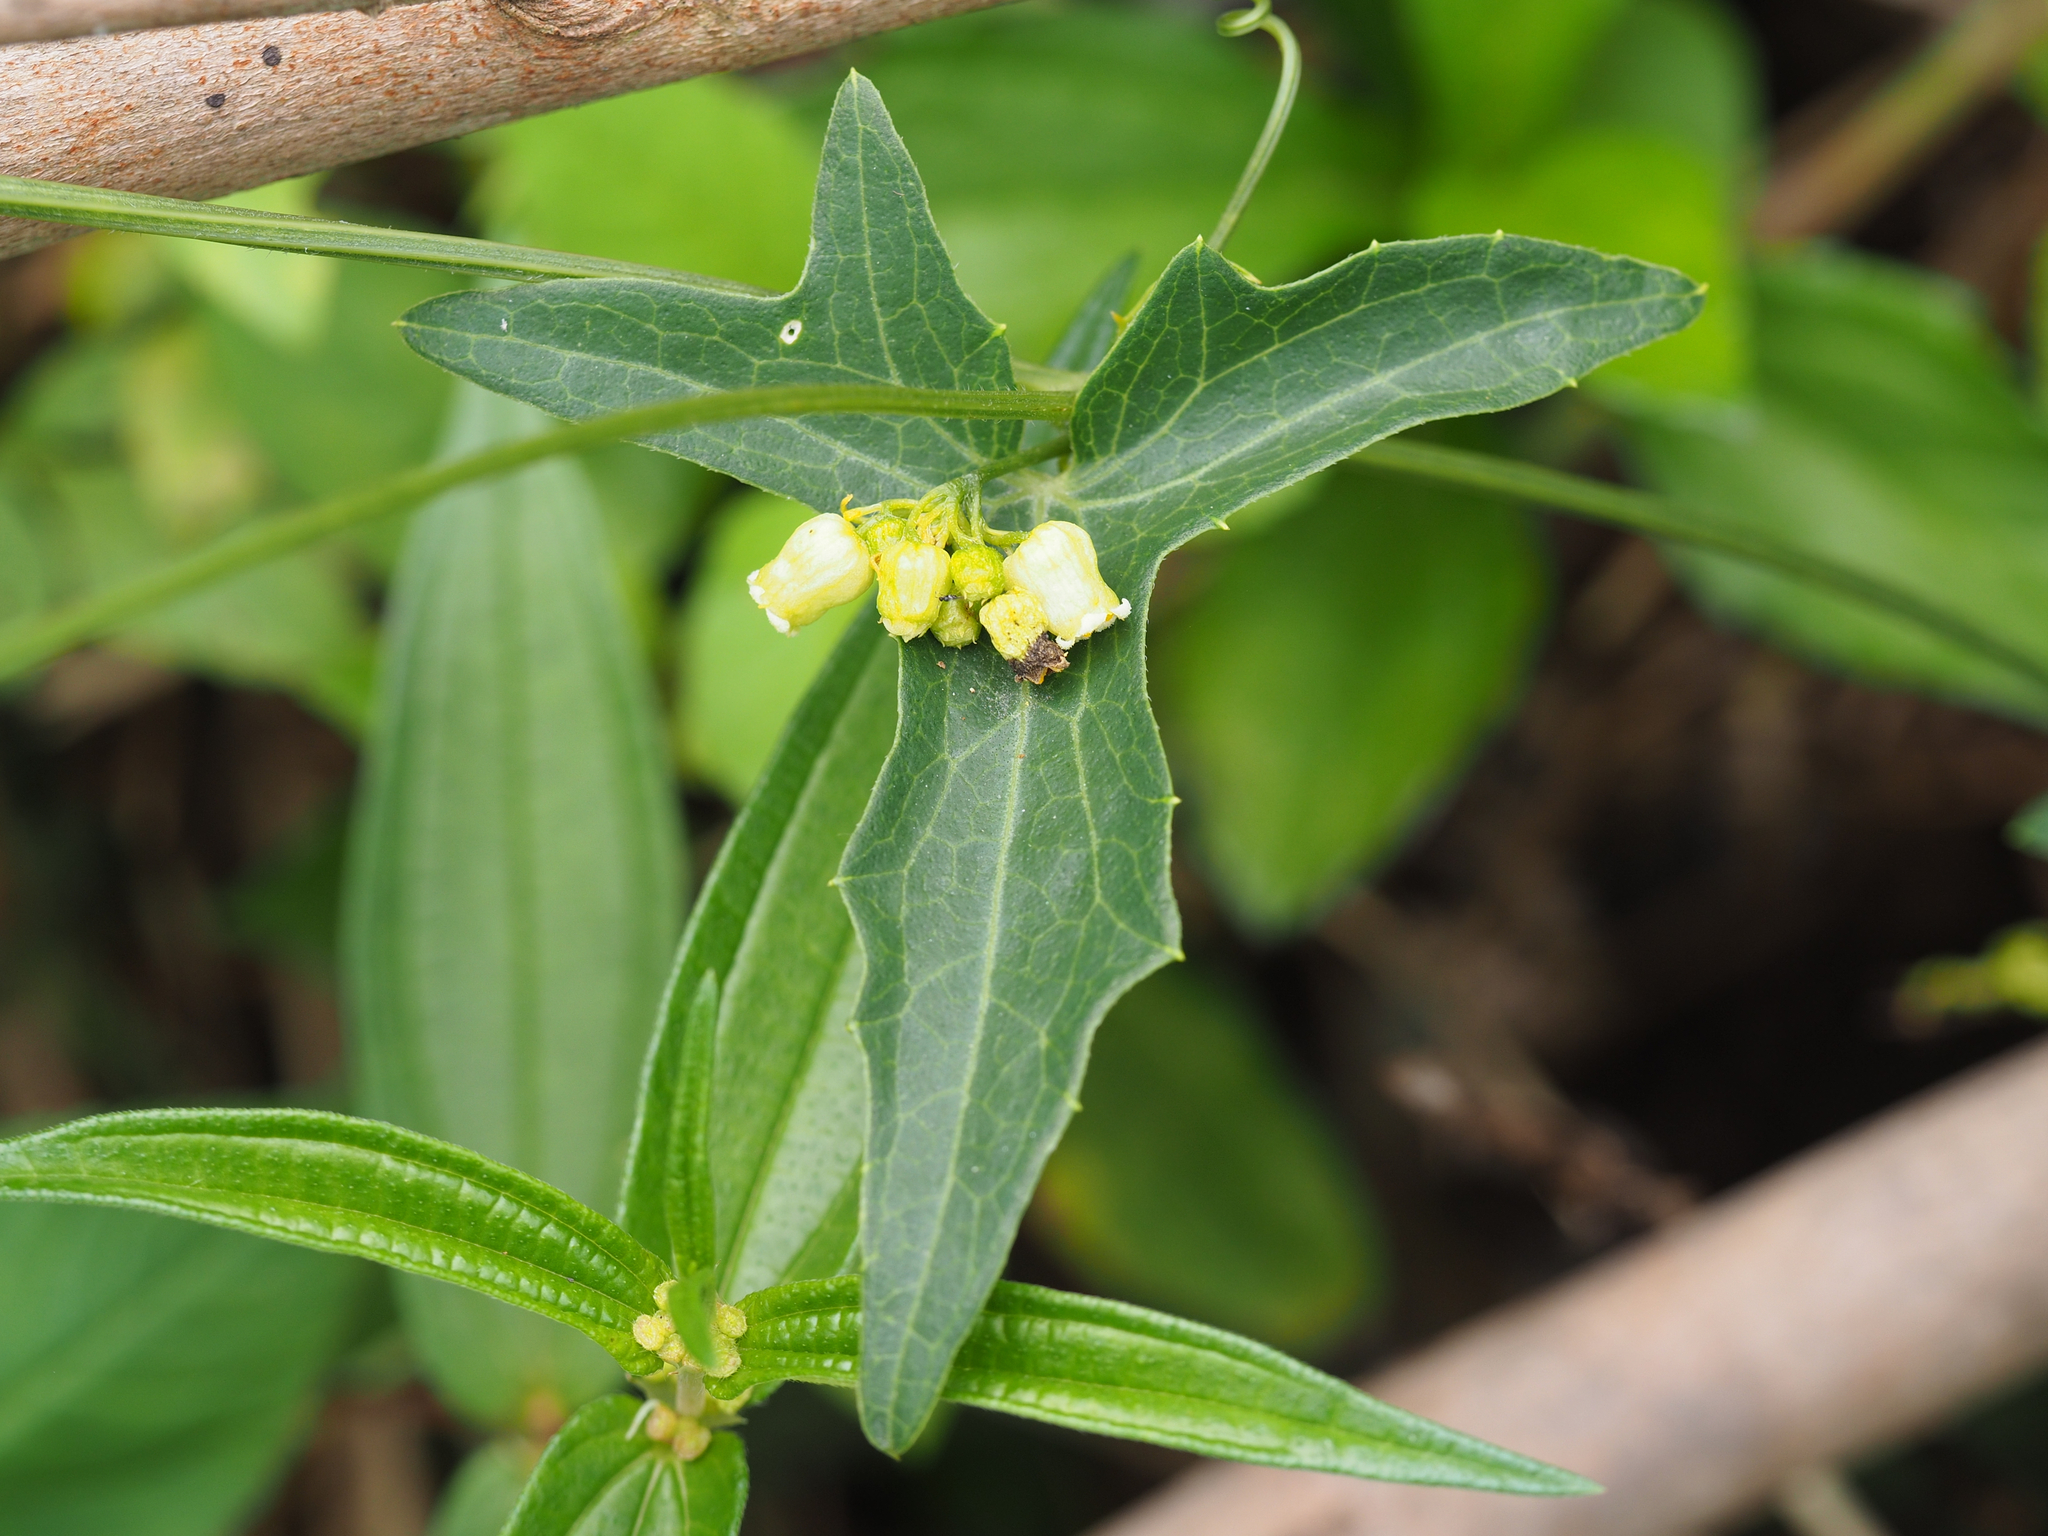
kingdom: Plantae
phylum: Tracheophyta
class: Magnoliopsida
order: Cucurbitales
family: Cucurbitaceae
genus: Solena
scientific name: Solena amplexicaulis
